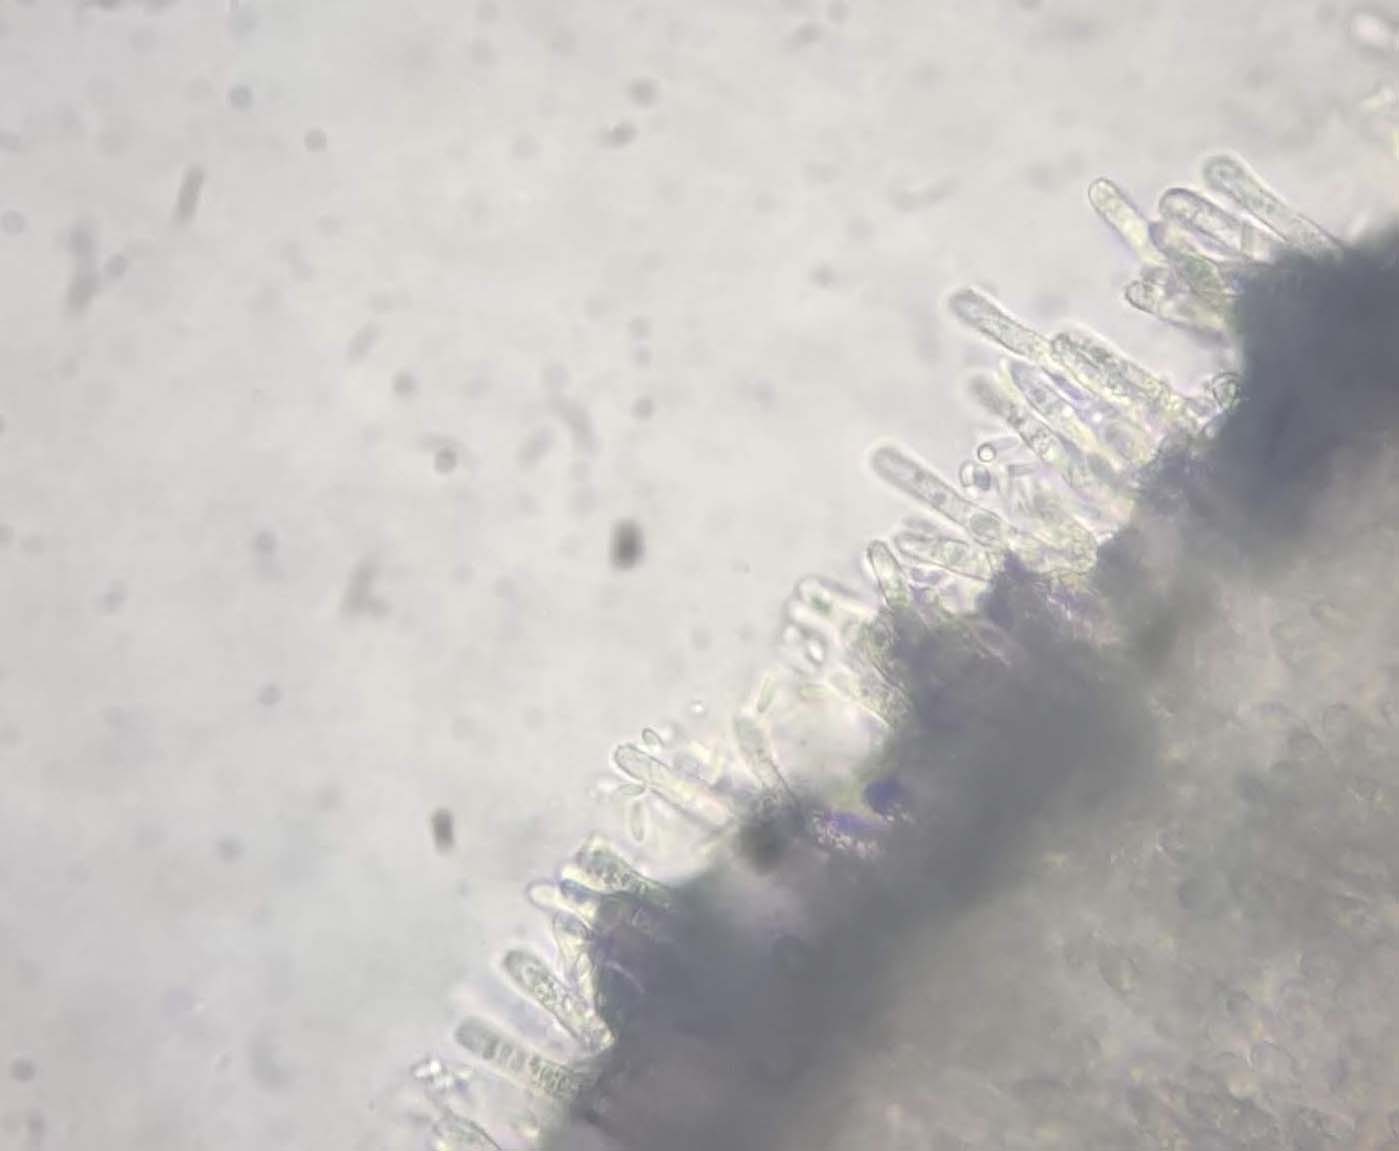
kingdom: Fungi
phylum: Ascomycota
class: Leotiomycetes
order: Helotiales
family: Lachnaceae
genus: Lachnum
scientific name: Lachnum controversum
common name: tagrør-frynseskive
